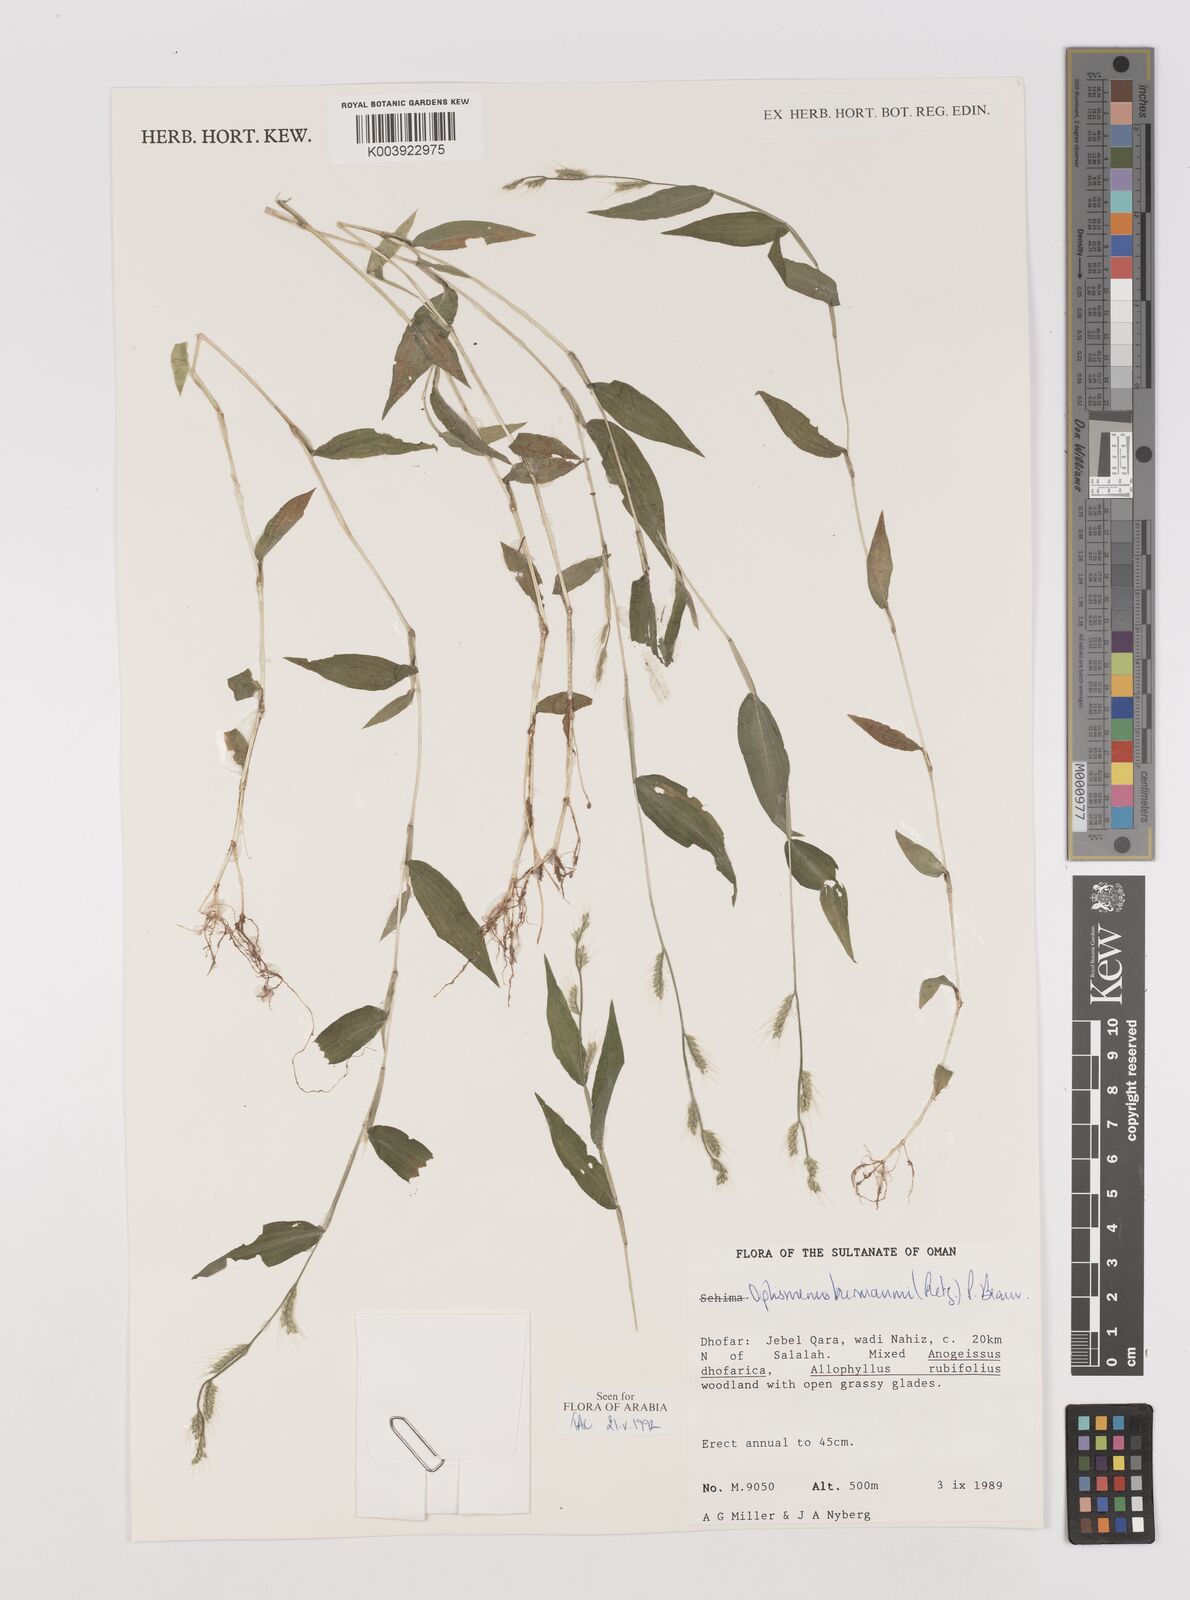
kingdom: Plantae
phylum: Tracheophyta
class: Liliopsida
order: Poales
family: Poaceae
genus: Oplismenus
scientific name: Oplismenus burmanni
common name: Burmann's basketgrass
